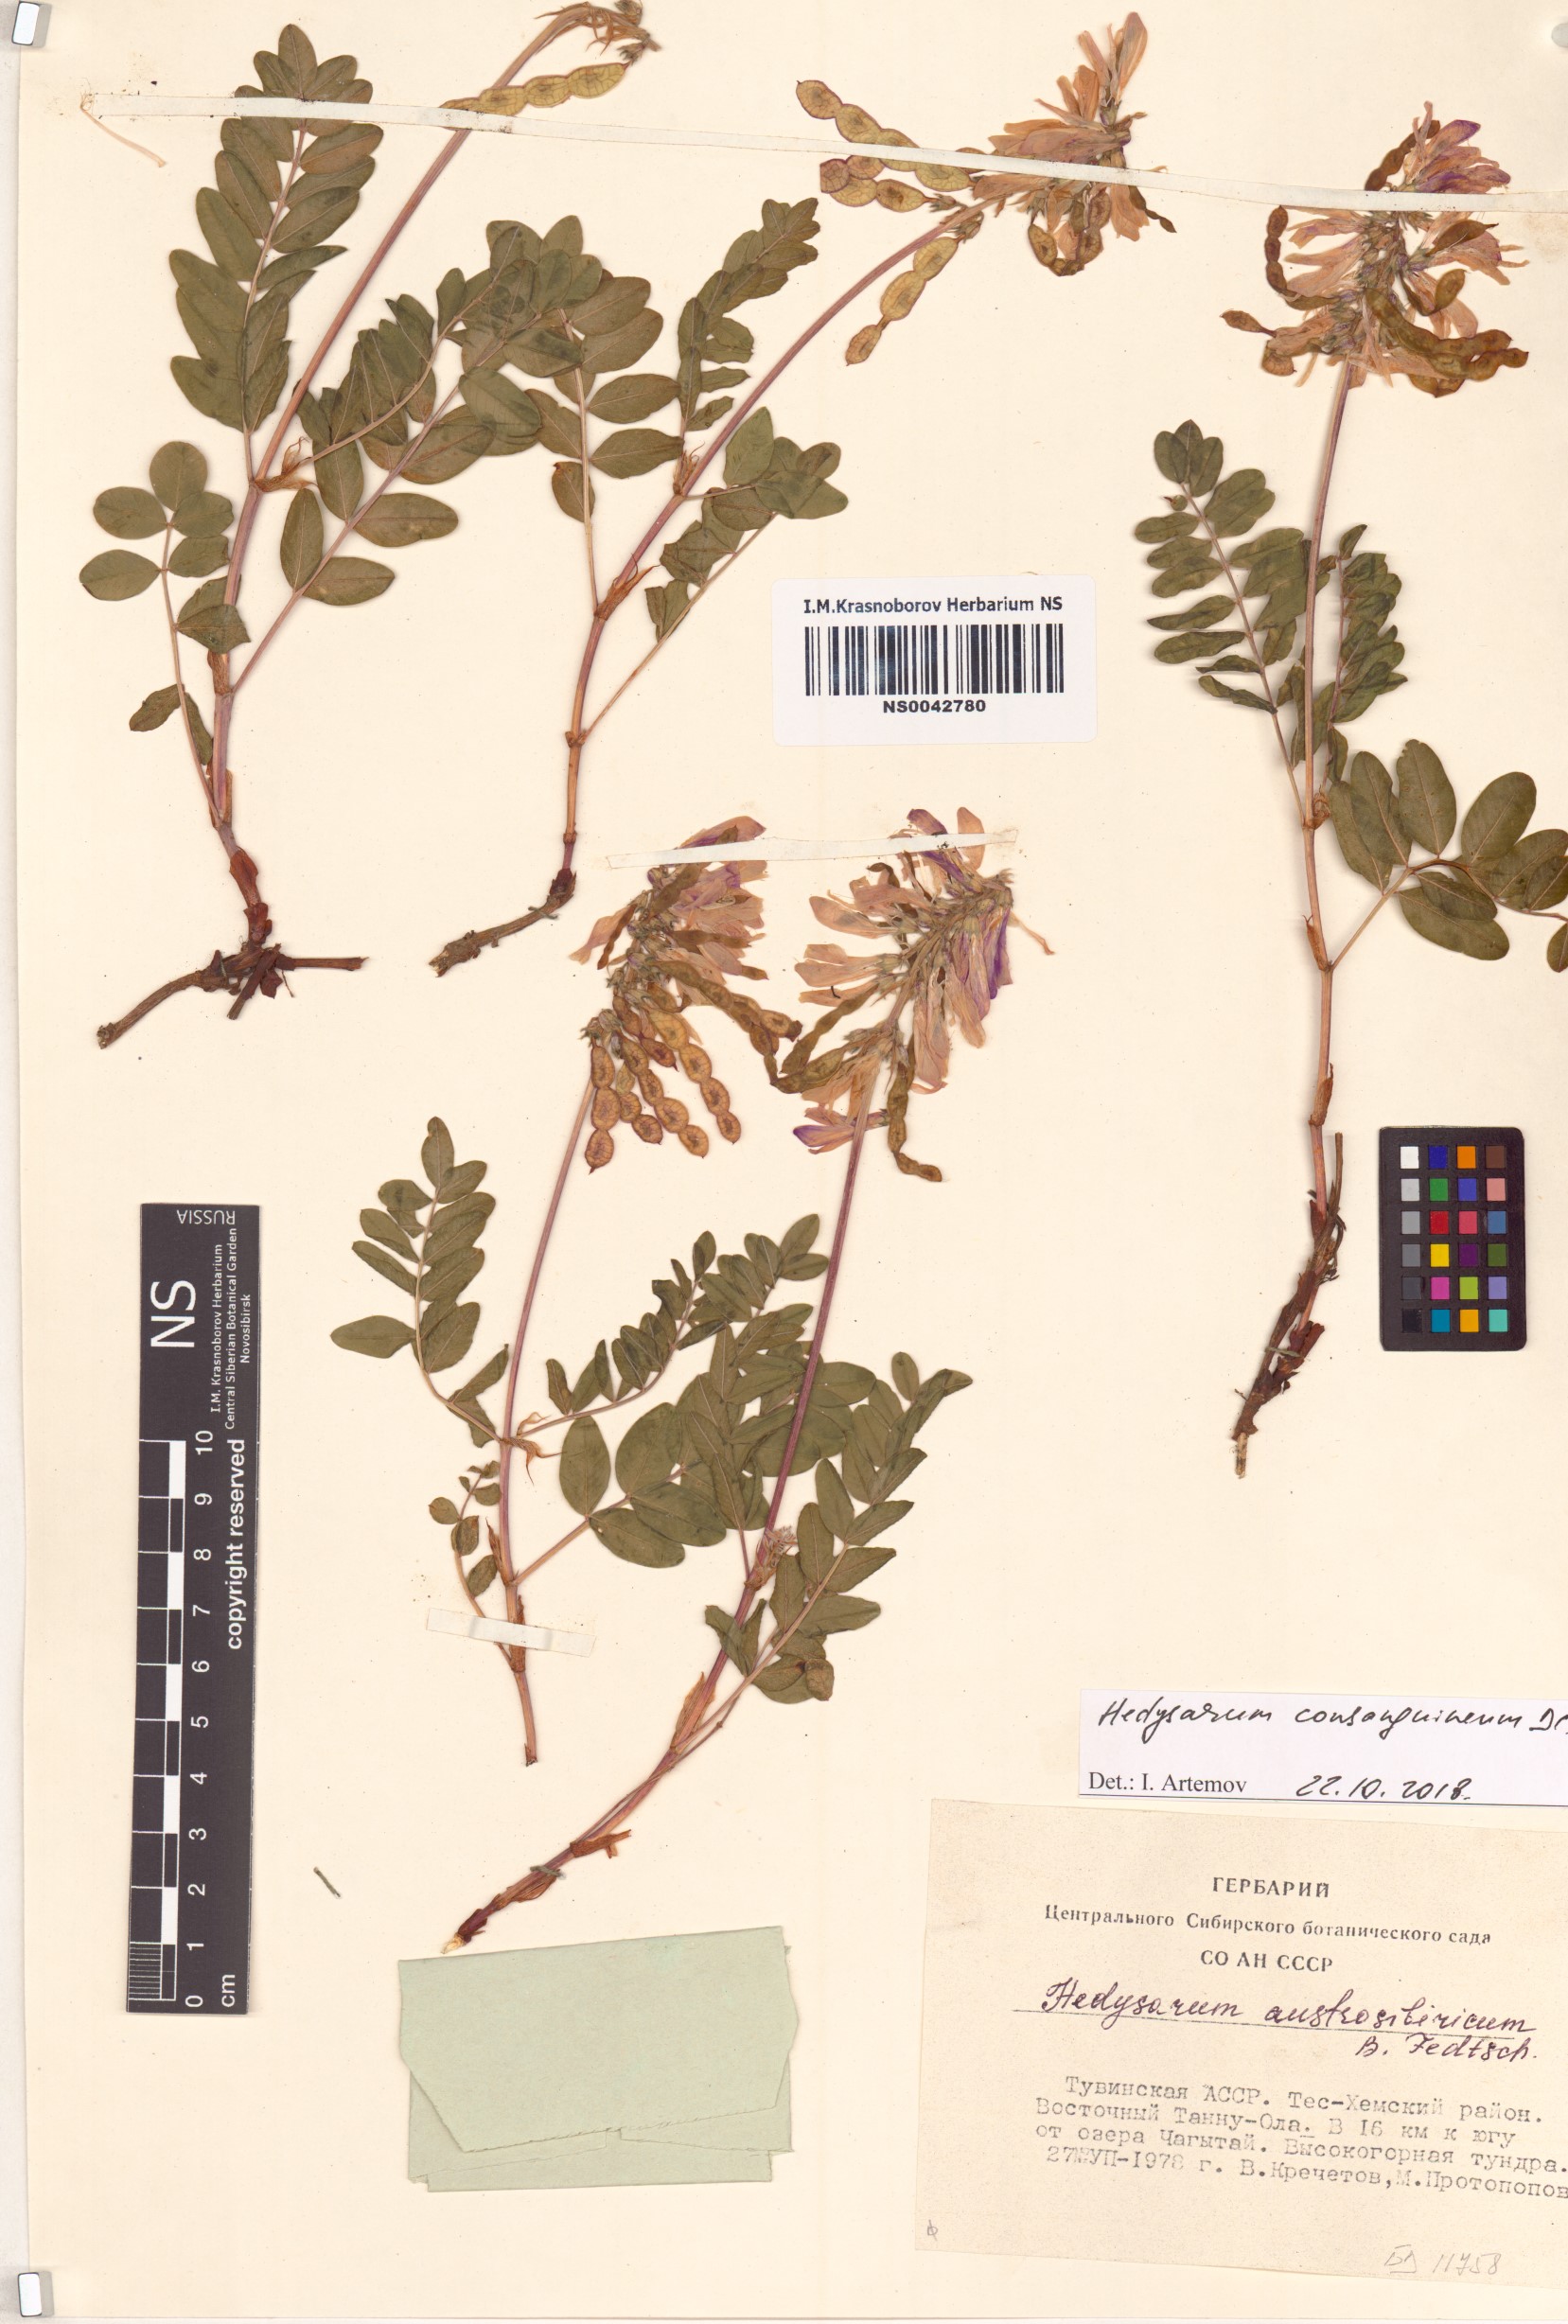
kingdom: Plantae
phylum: Tracheophyta
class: Magnoliopsida
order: Fabales
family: Fabaceae
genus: Hedysarum
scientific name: Hedysarum consanguineum
